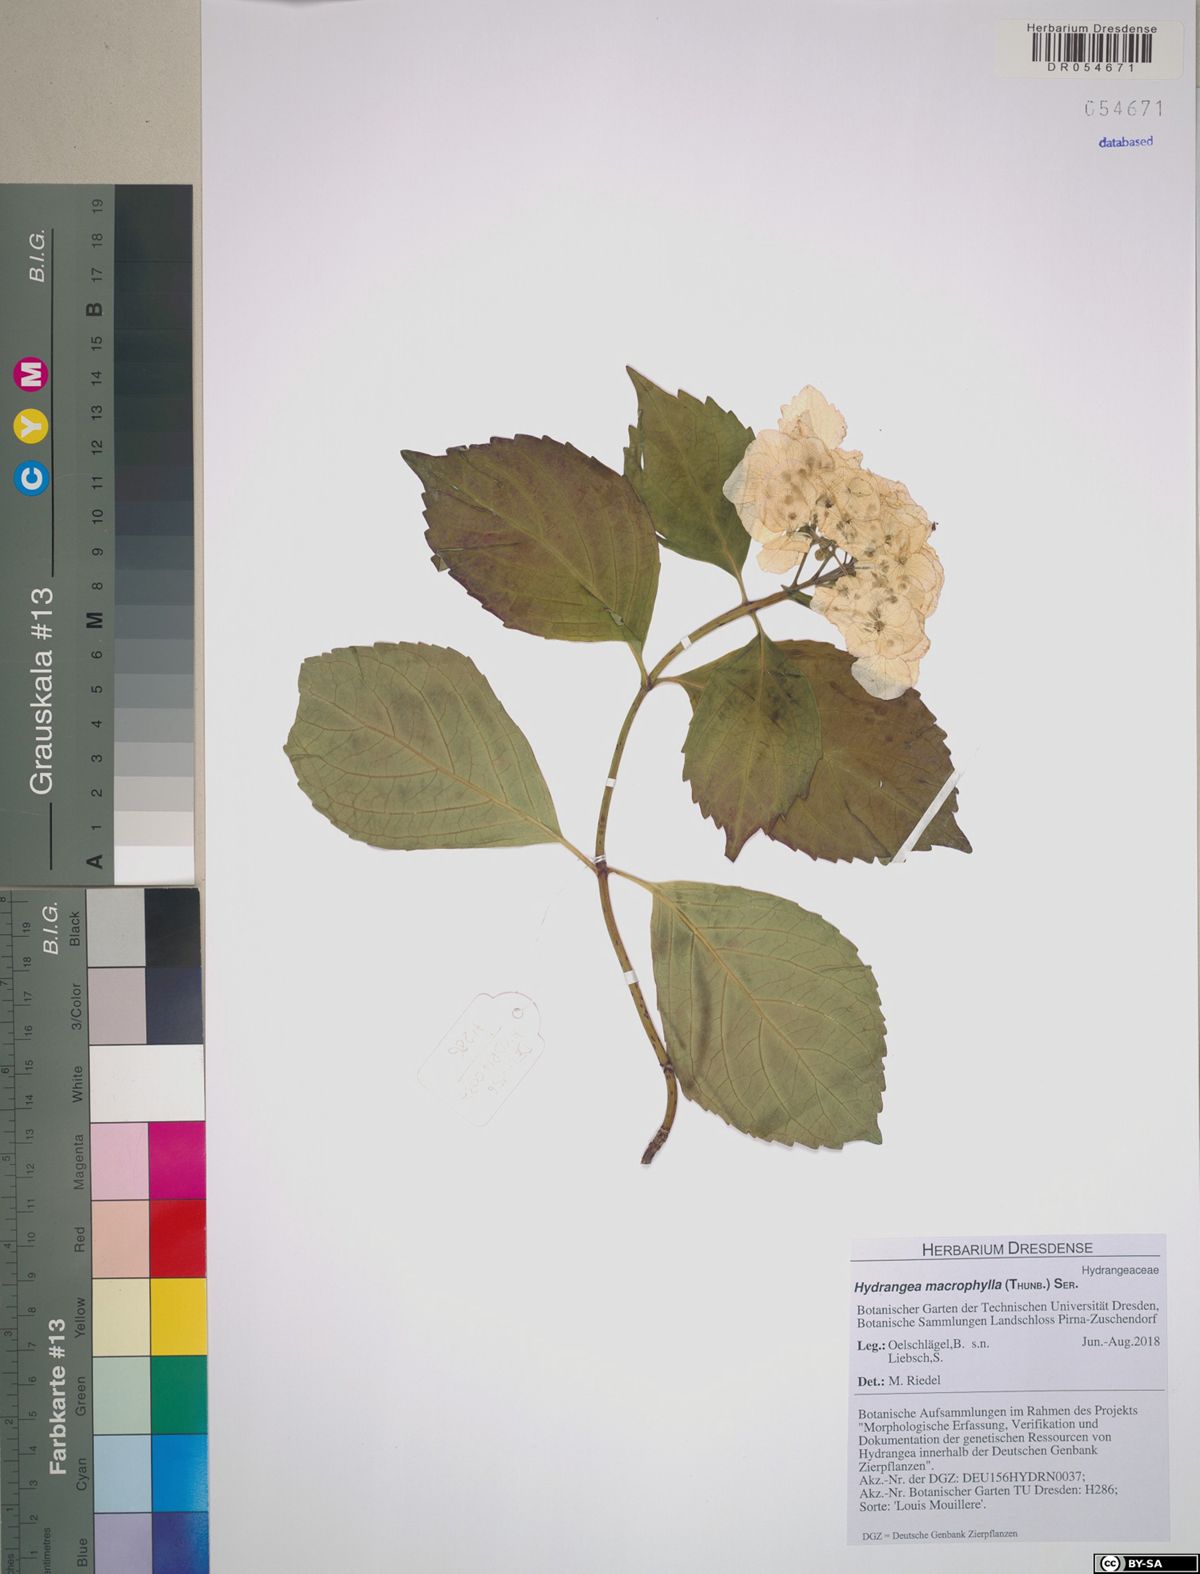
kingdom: Plantae
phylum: Tracheophyta
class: Magnoliopsida
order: Cornales
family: Hydrangeaceae
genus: Hydrangea
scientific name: Hydrangea macrophylla
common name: Hydrangea
